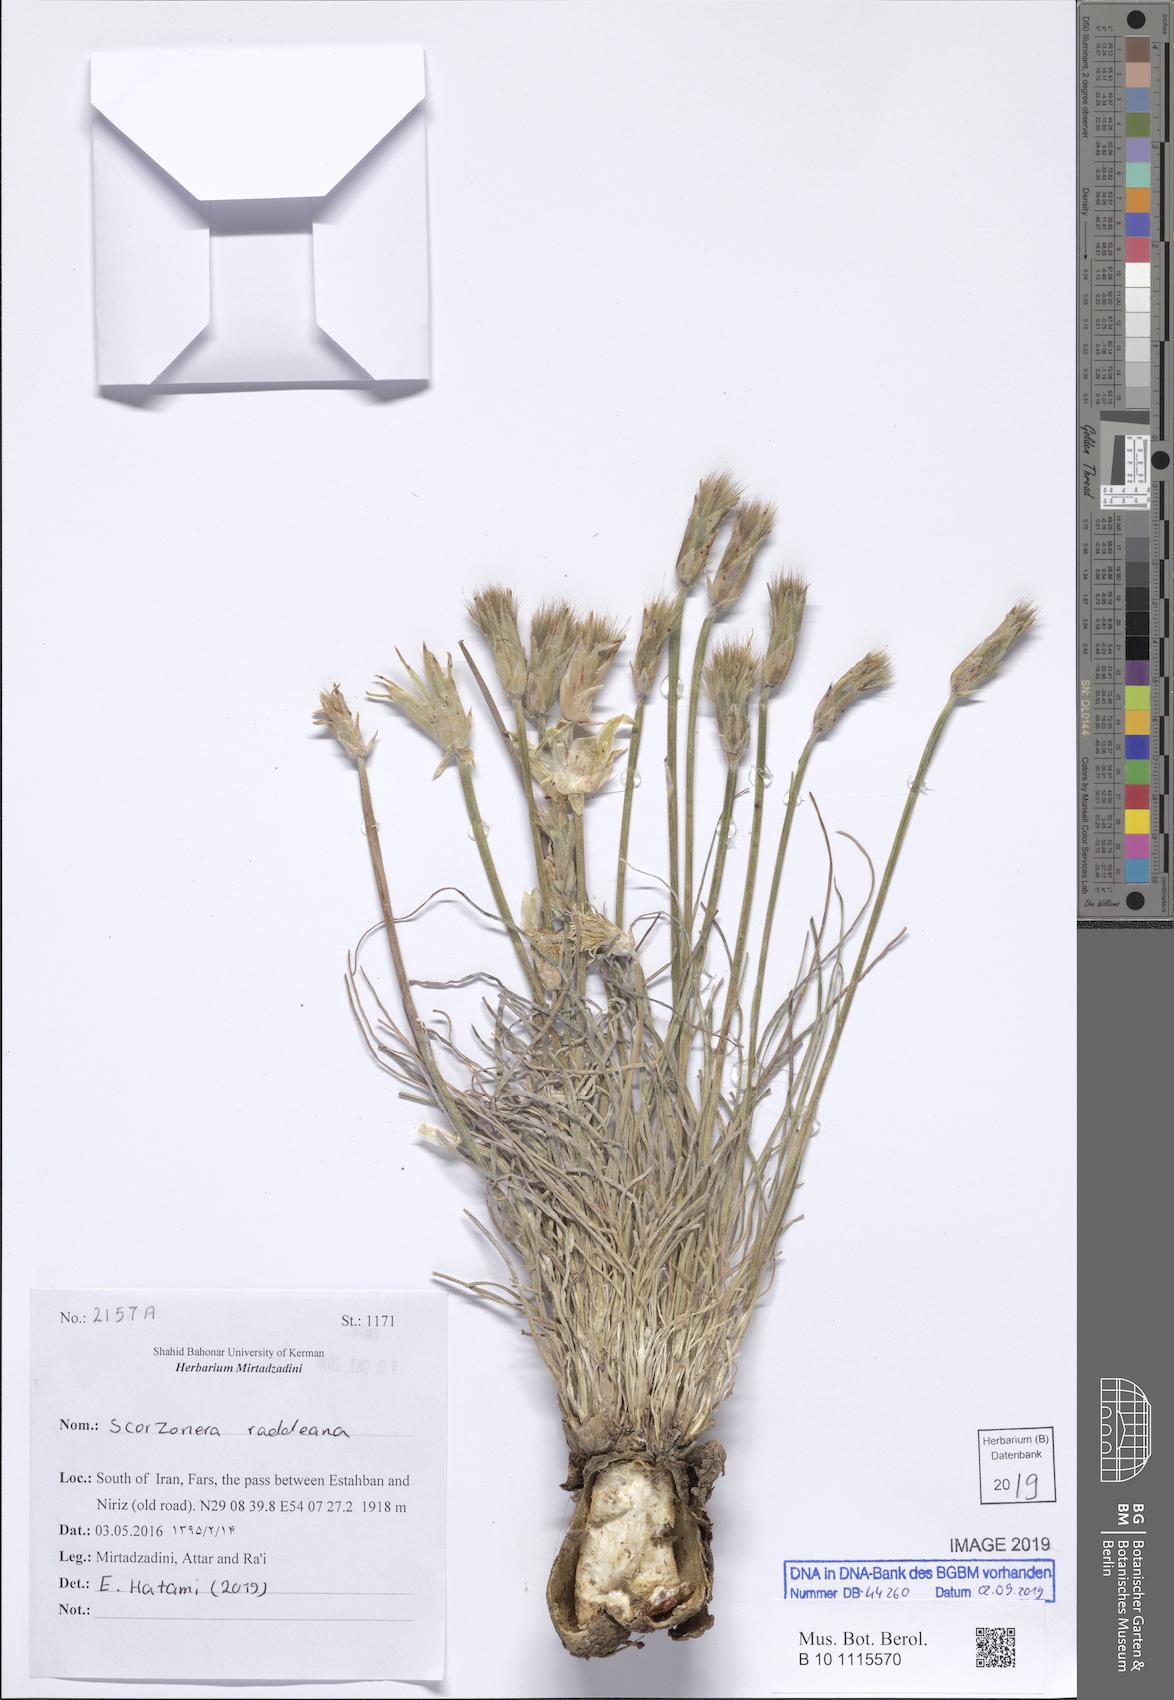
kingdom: Plantae
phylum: Tracheophyta
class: Magnoliopsida
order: Asterales
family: Asteraceae
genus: Candollea
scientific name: Candollea raddeana
